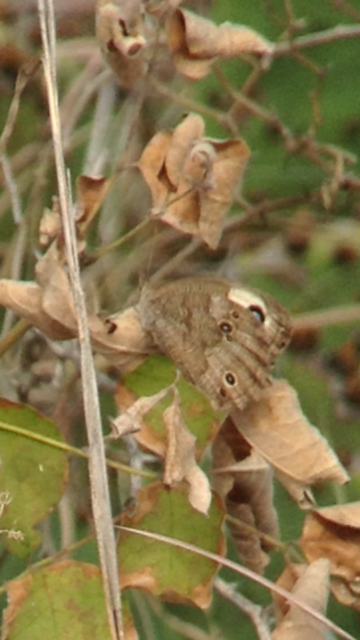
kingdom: Animalia
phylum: Arthropoda
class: Insecta
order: Lepidoptera
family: Nymphalidae
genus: Cercyonis
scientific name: Cercyonis pegala
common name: Common Wood-Nymph
